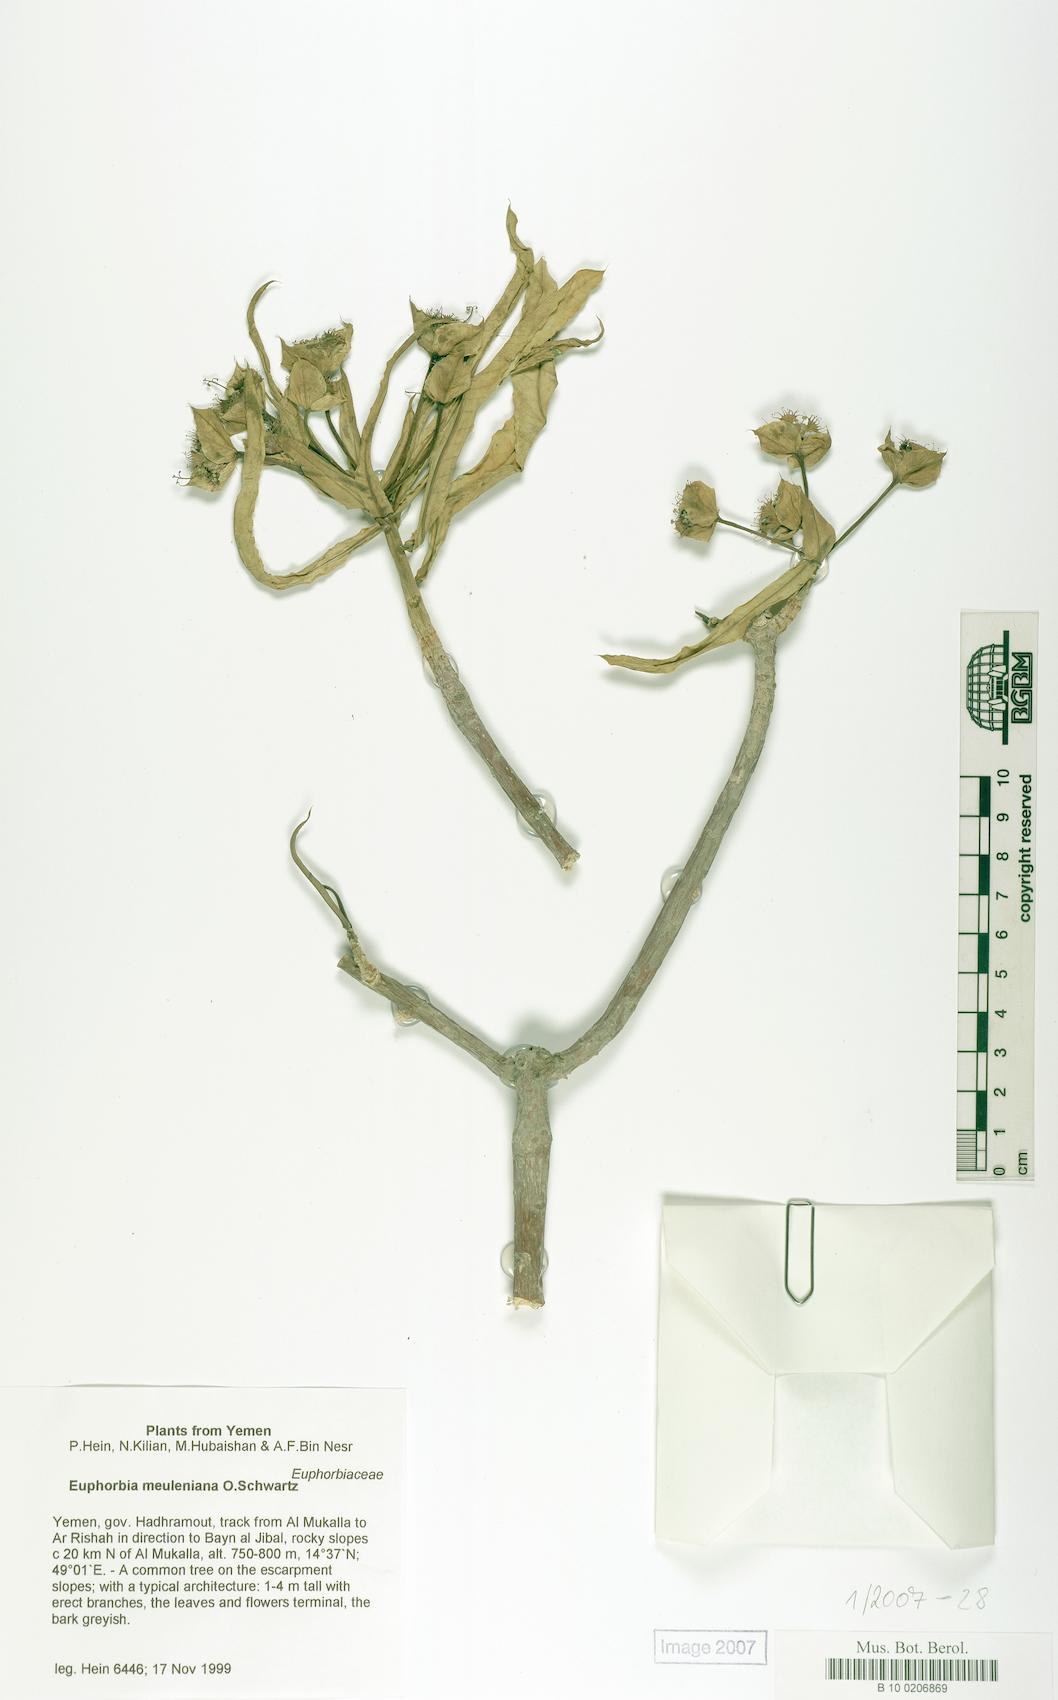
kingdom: Plantae
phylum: Tracheophyta
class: Magnoliopsida
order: Malpighiales
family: Euphorbiaceae
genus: Euphorbia
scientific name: Euphorbia meuleniana
